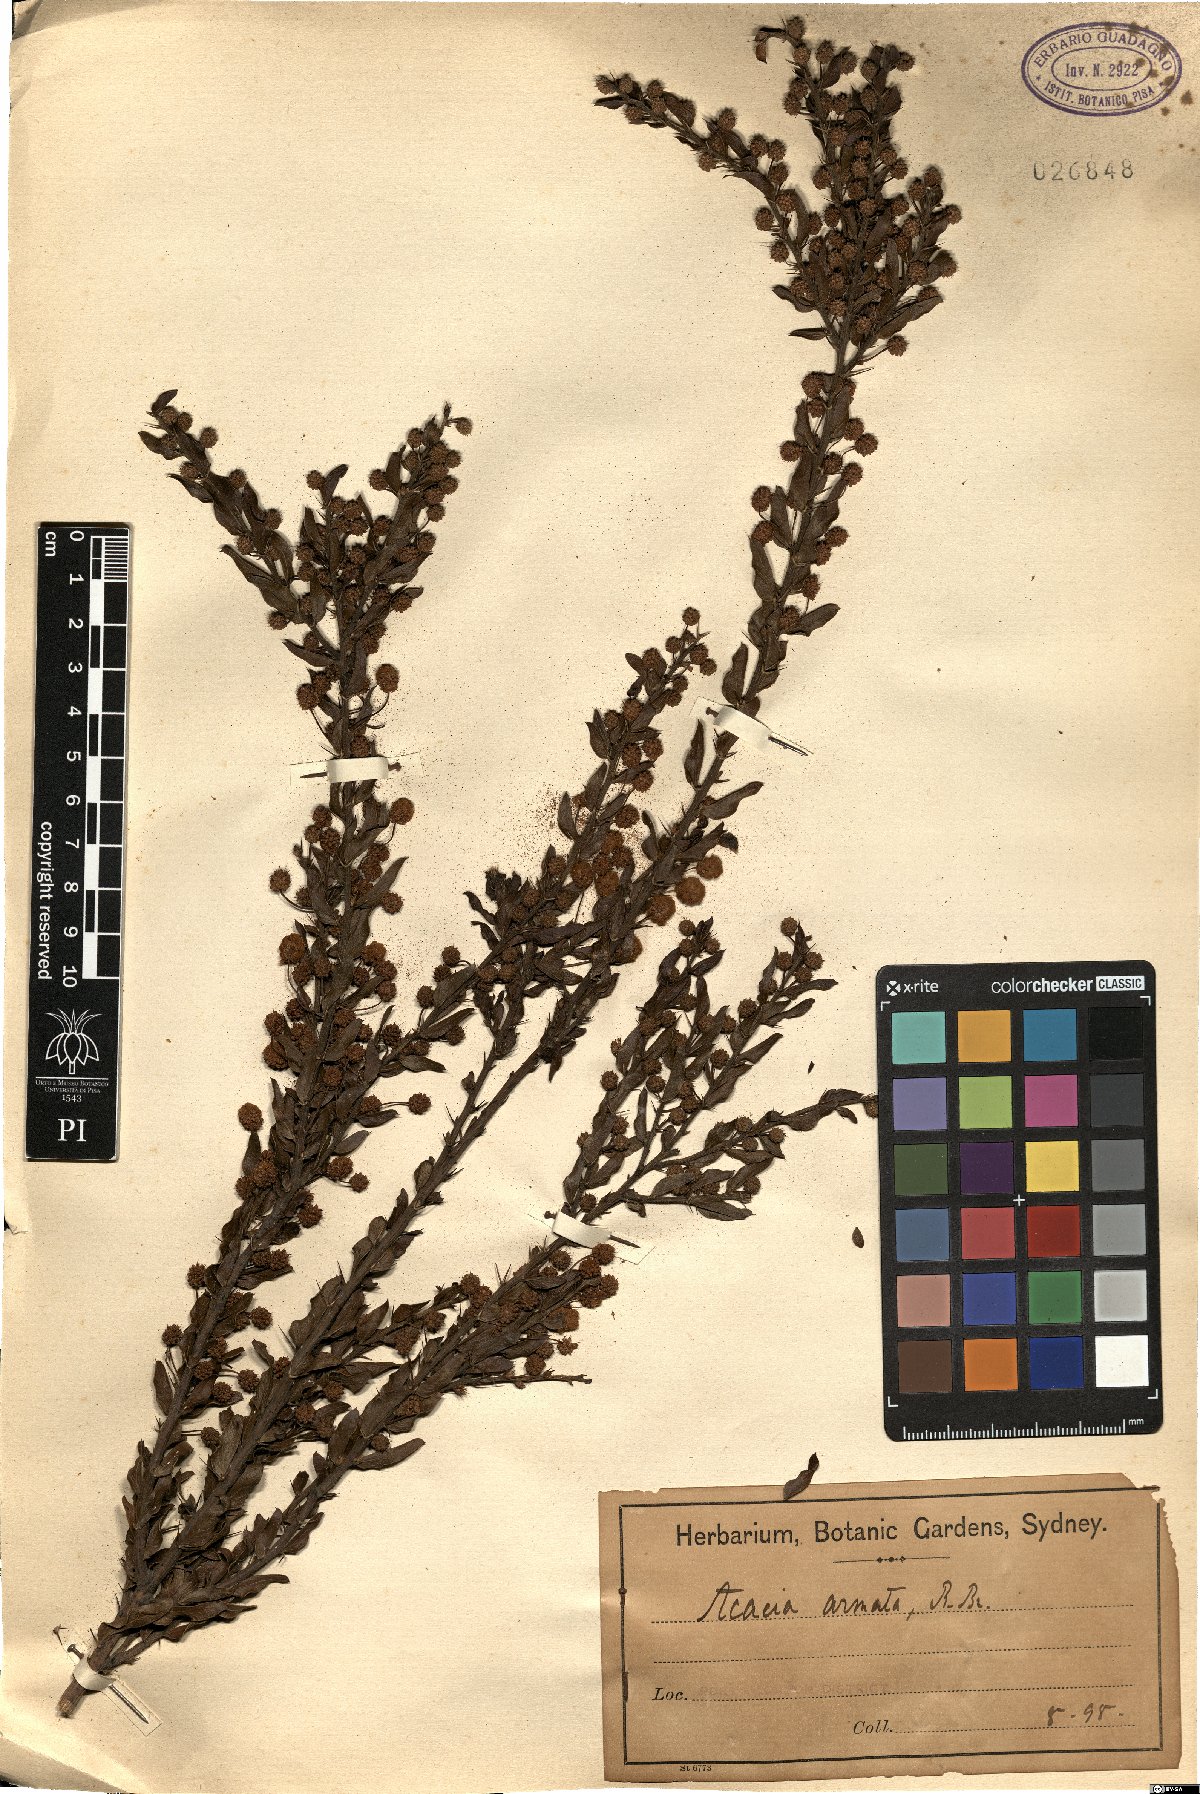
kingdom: Plantae
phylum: Tracheophyta
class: Magnoliopsida
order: Fabales
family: Fabaceae
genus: Acacia
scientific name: Acacia paradoxa
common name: Paradox acacia
